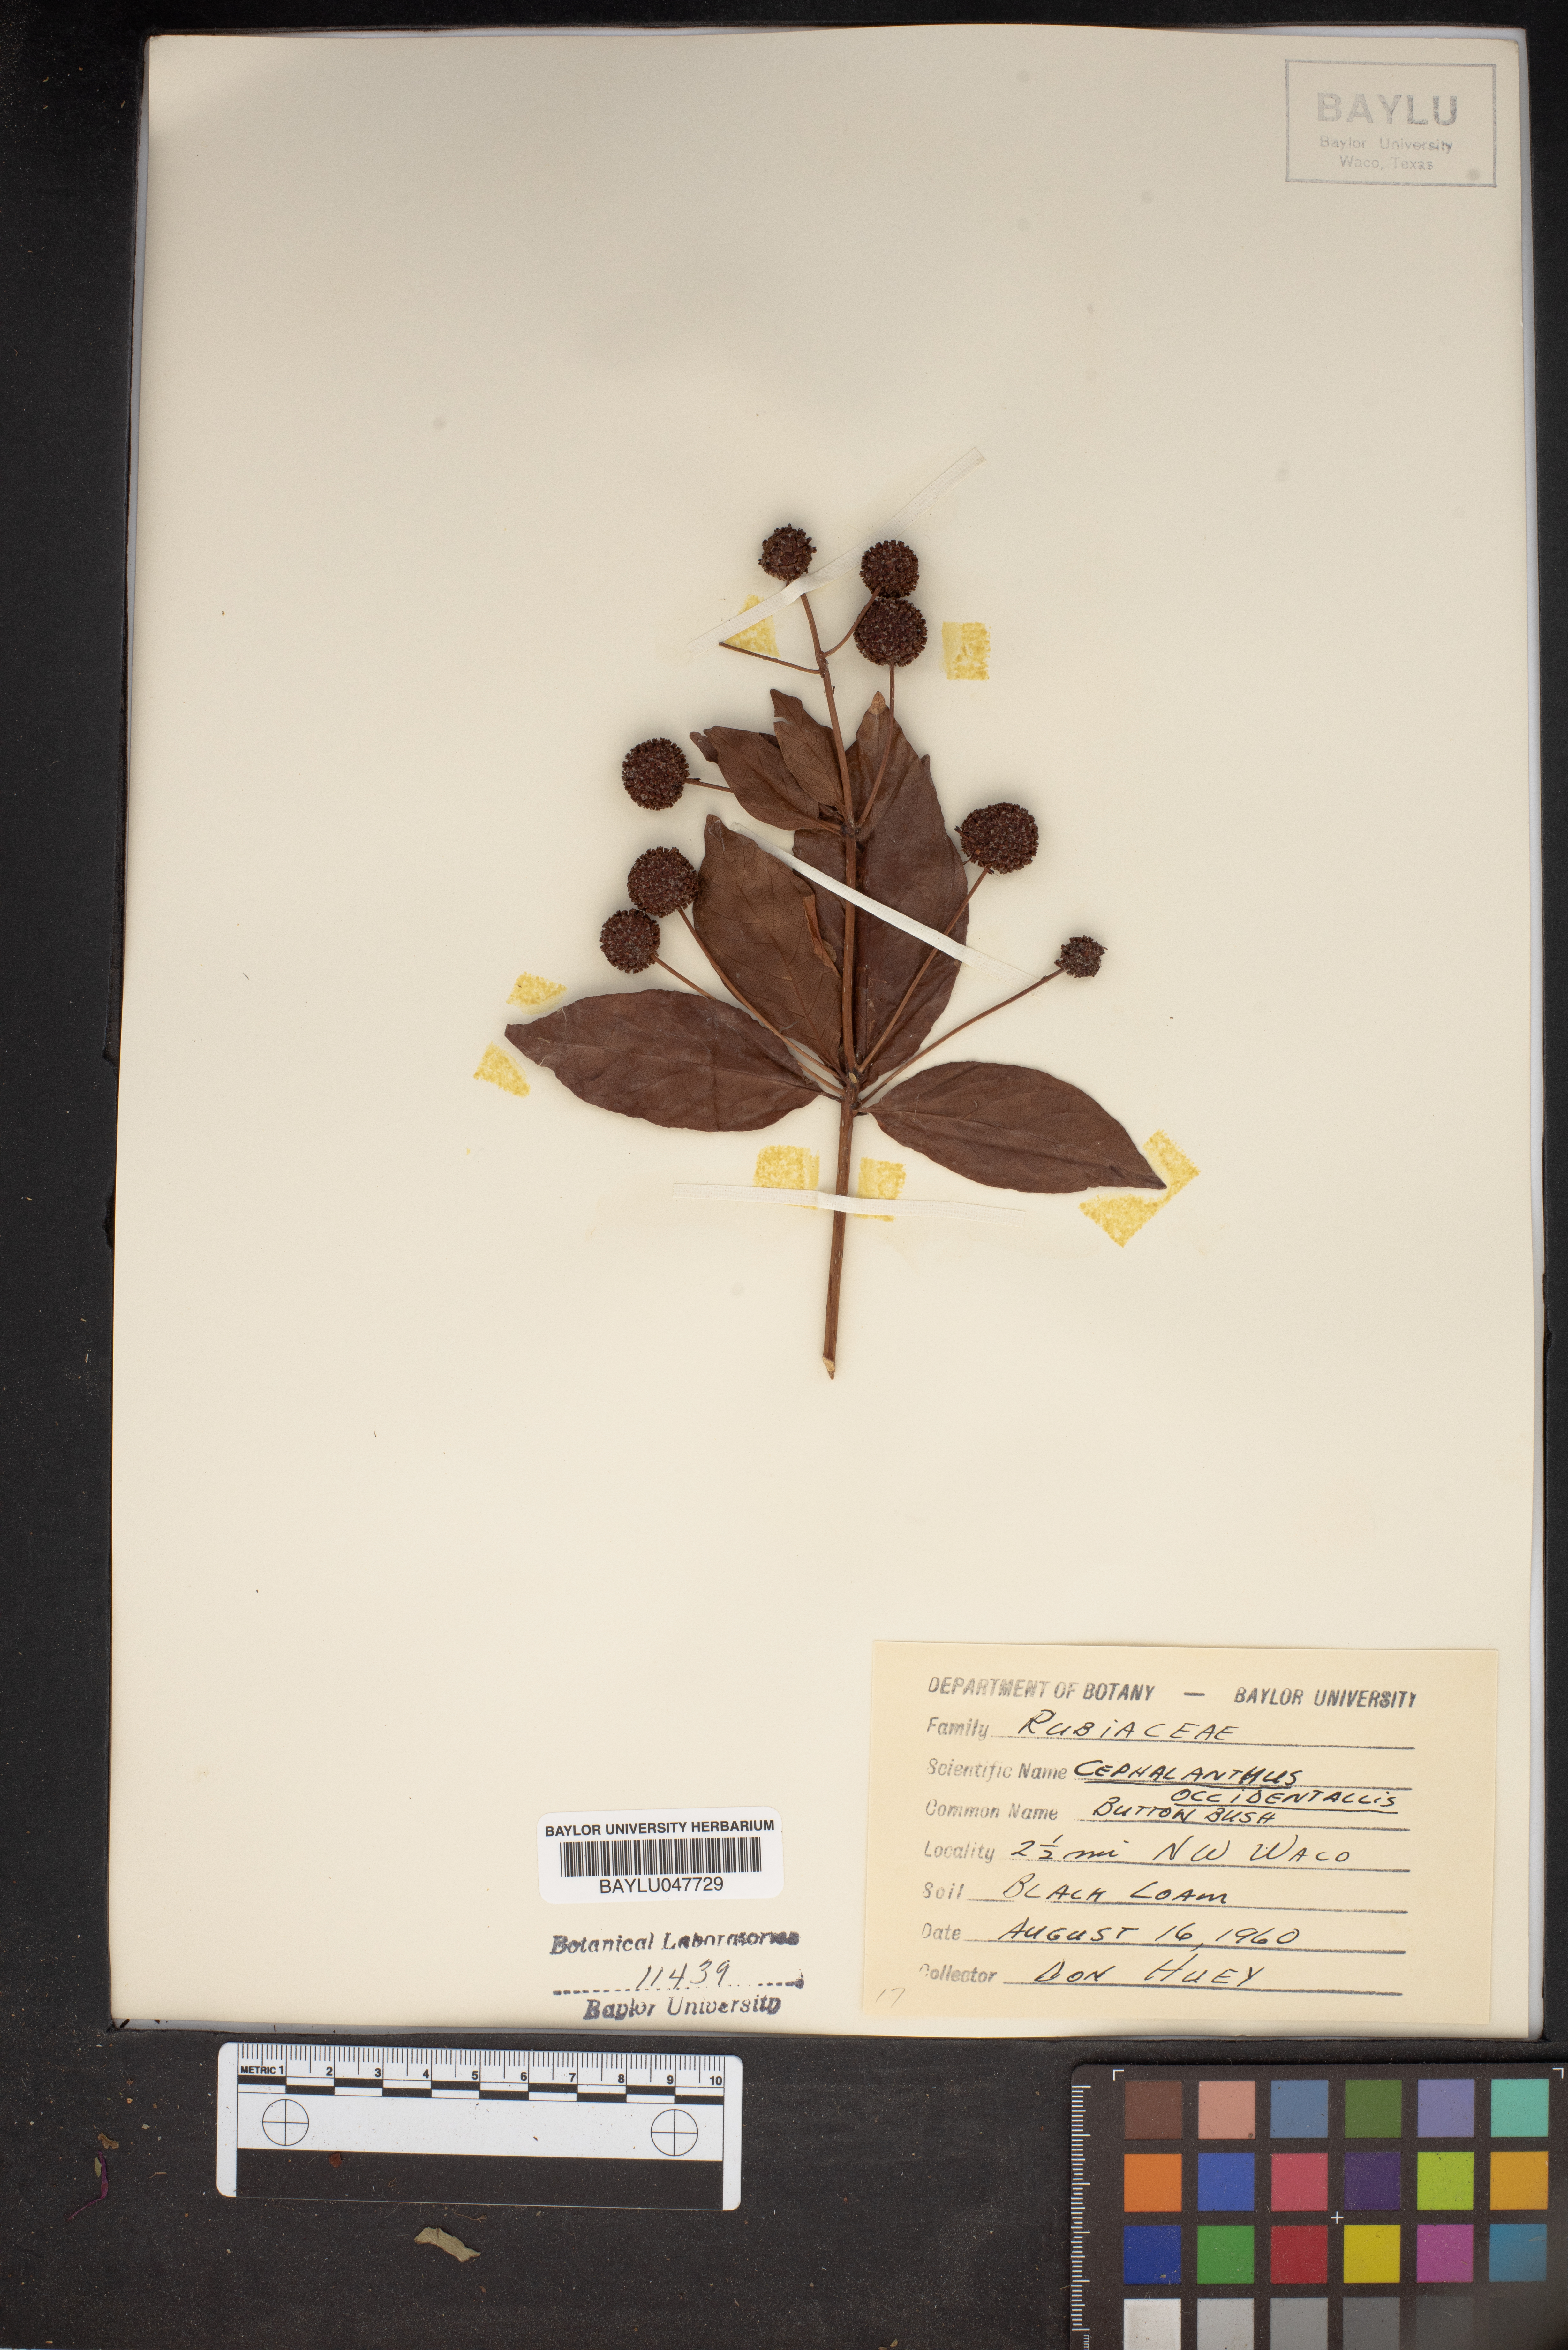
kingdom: Plantae
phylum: Tracheophyta
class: Magnoliopsida
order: Gentianales
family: Rubiaceae
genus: Cephalanthus
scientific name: Cephalanthus occidentalis
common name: Button-willow
